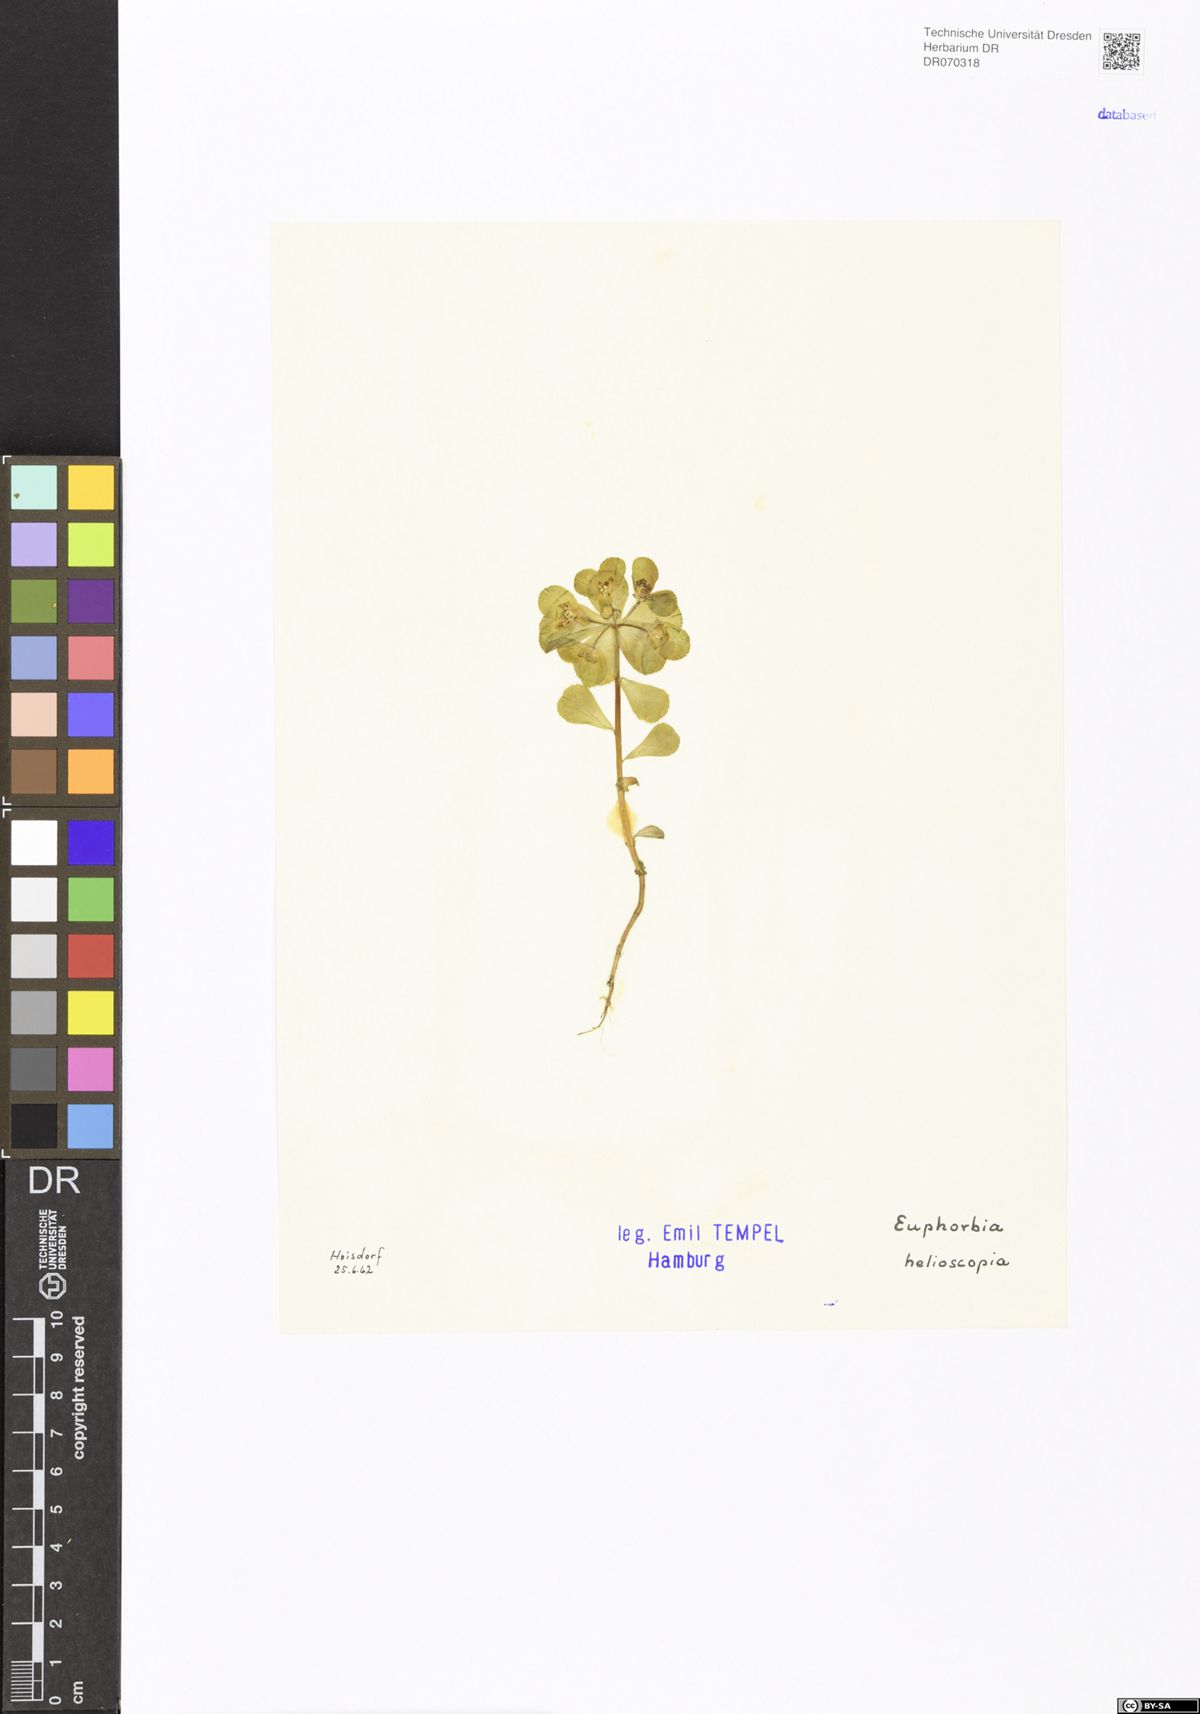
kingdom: Plantae
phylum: Tracheophyta
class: Magnoliopsida
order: Malpighiales
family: Euphorbiaceae
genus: Euphorbia
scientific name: Euphorbia helioscopia
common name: Sun spurge
